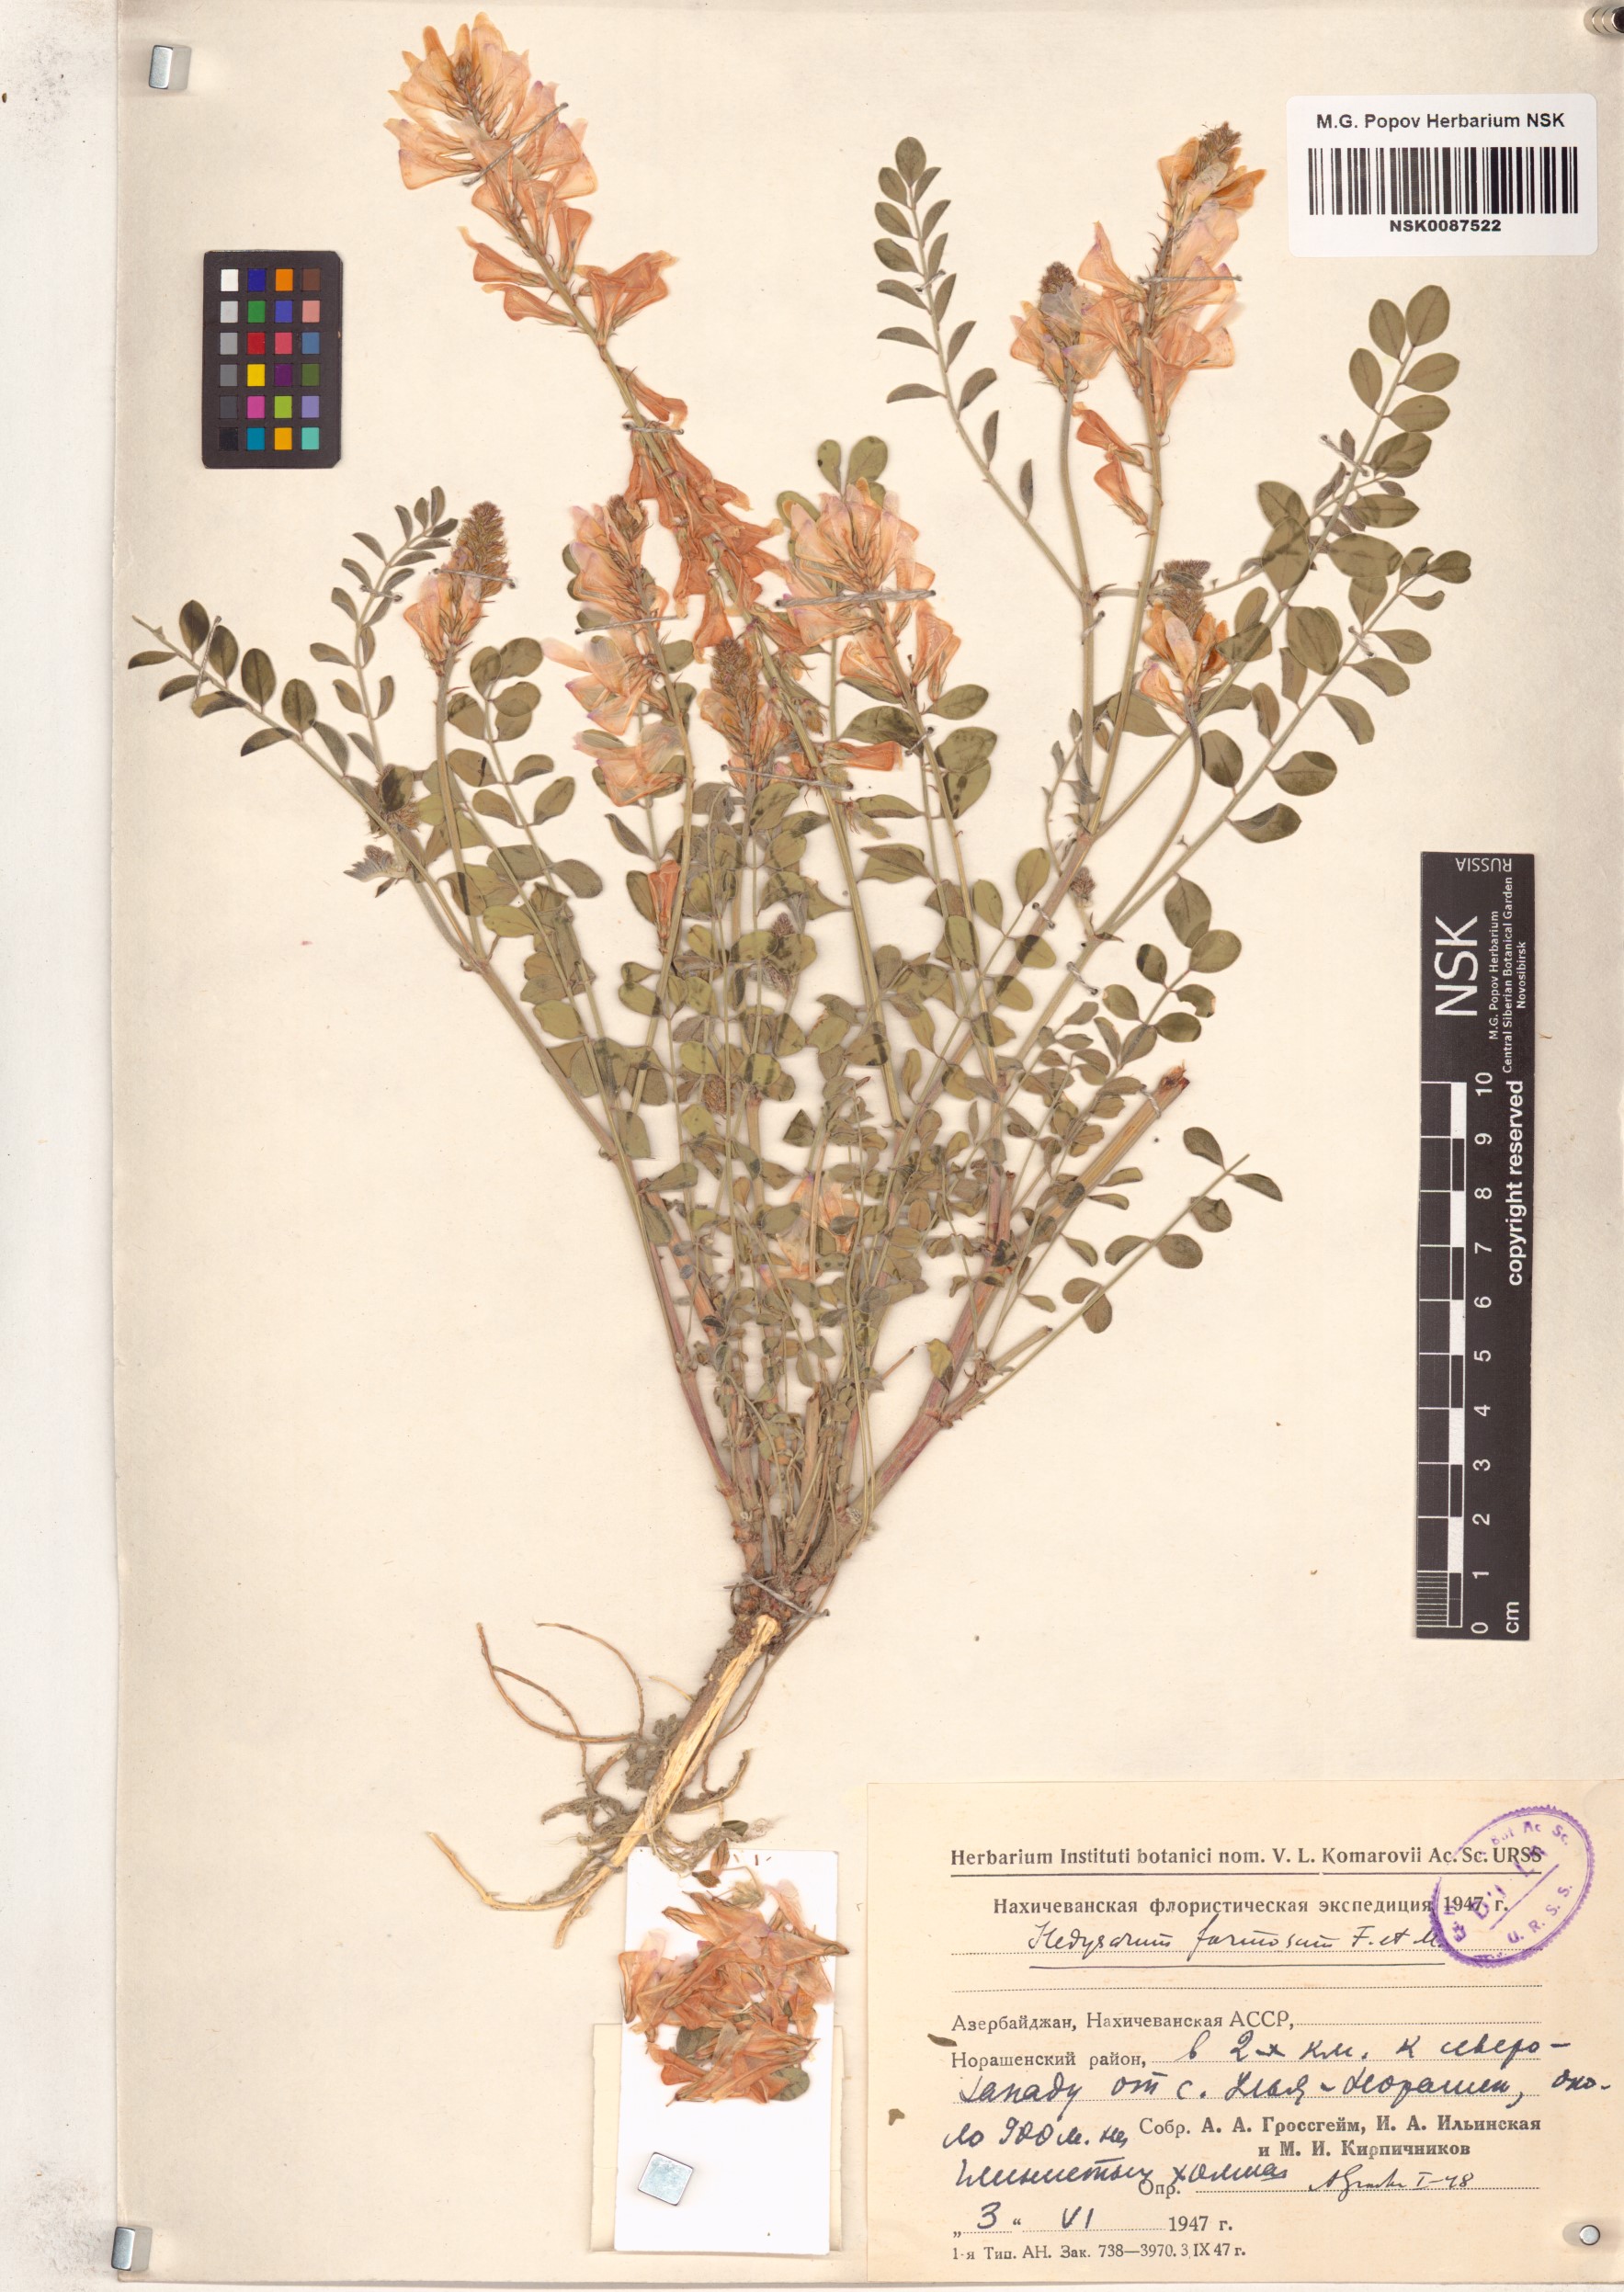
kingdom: Plantae
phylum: Tracheophyta
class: Magnoliopsida
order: Fabales
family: Fabaceae
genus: Hedysarum
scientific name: Hedysarum formosum
